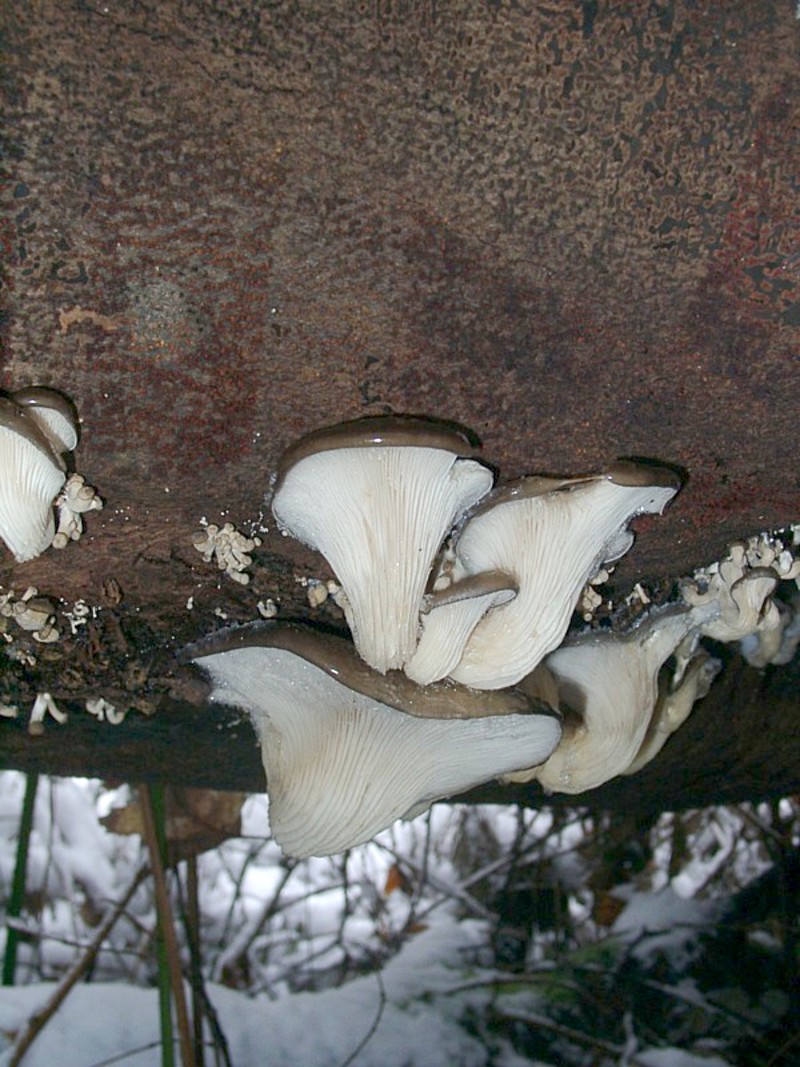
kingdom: Fungi
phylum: Basidiomycota
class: Agaricomycetes
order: Agaricales
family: Pleurotaceae
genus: Pleurotus
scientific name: Pleurotus ostreatus
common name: Oyster mushroom
